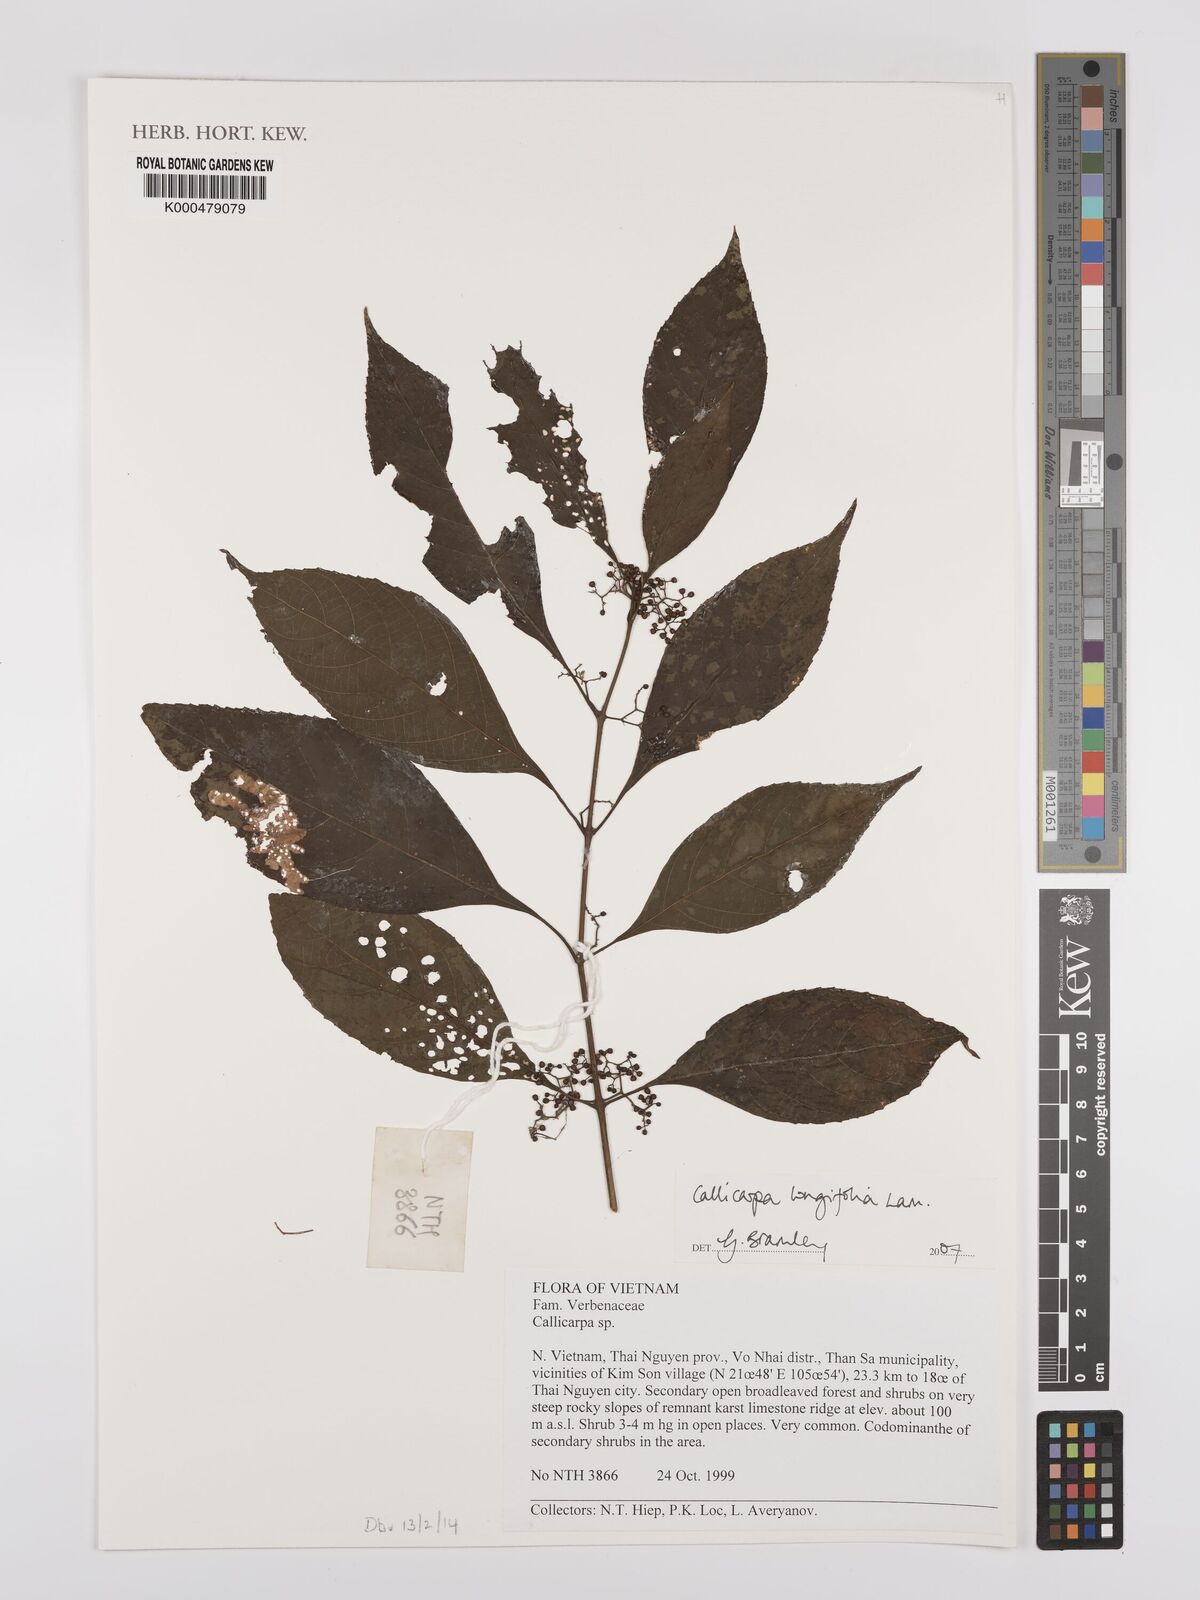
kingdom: Plantae
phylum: Tracheophyta
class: Magnoliopsida
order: Lamiales
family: Lamiaceae
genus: Callicarpa
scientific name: Callicarpa longifolia
